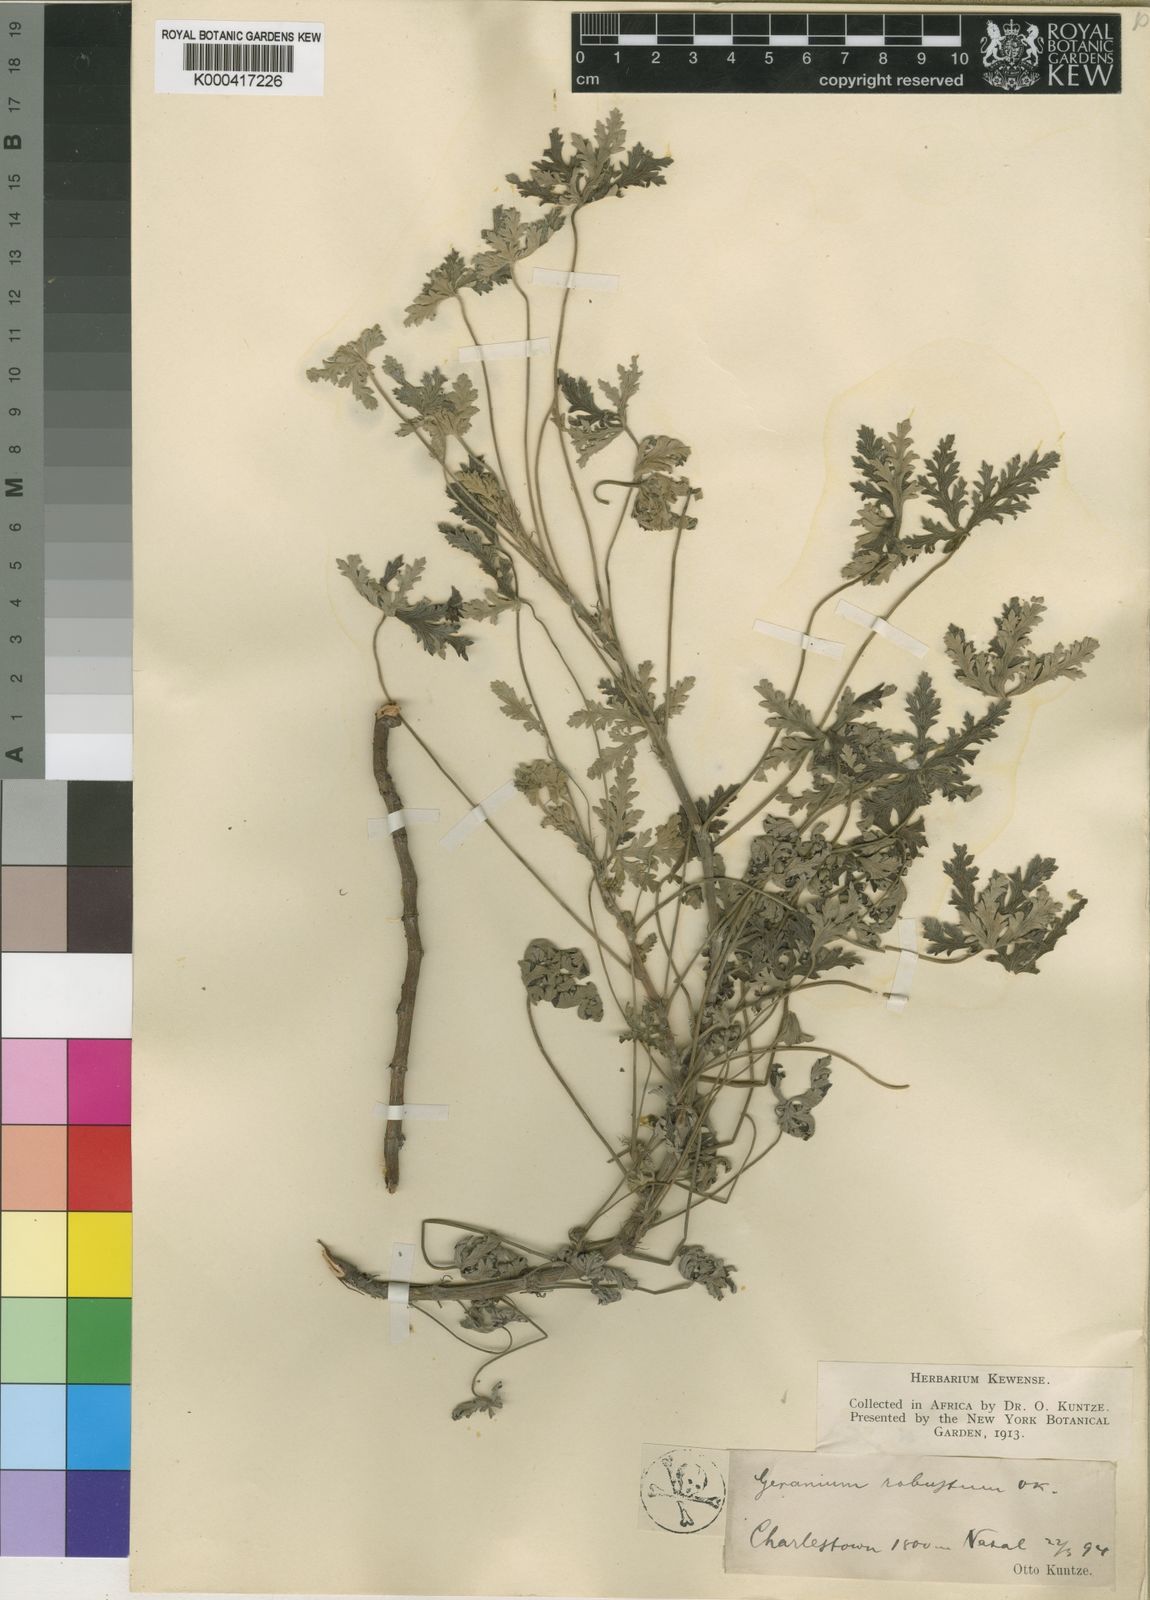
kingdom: Plantae
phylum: Tracheophyta
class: Magnoliopsida
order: Geraniales
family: Geraniaceae
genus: Geranium
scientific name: Geranium robustum
